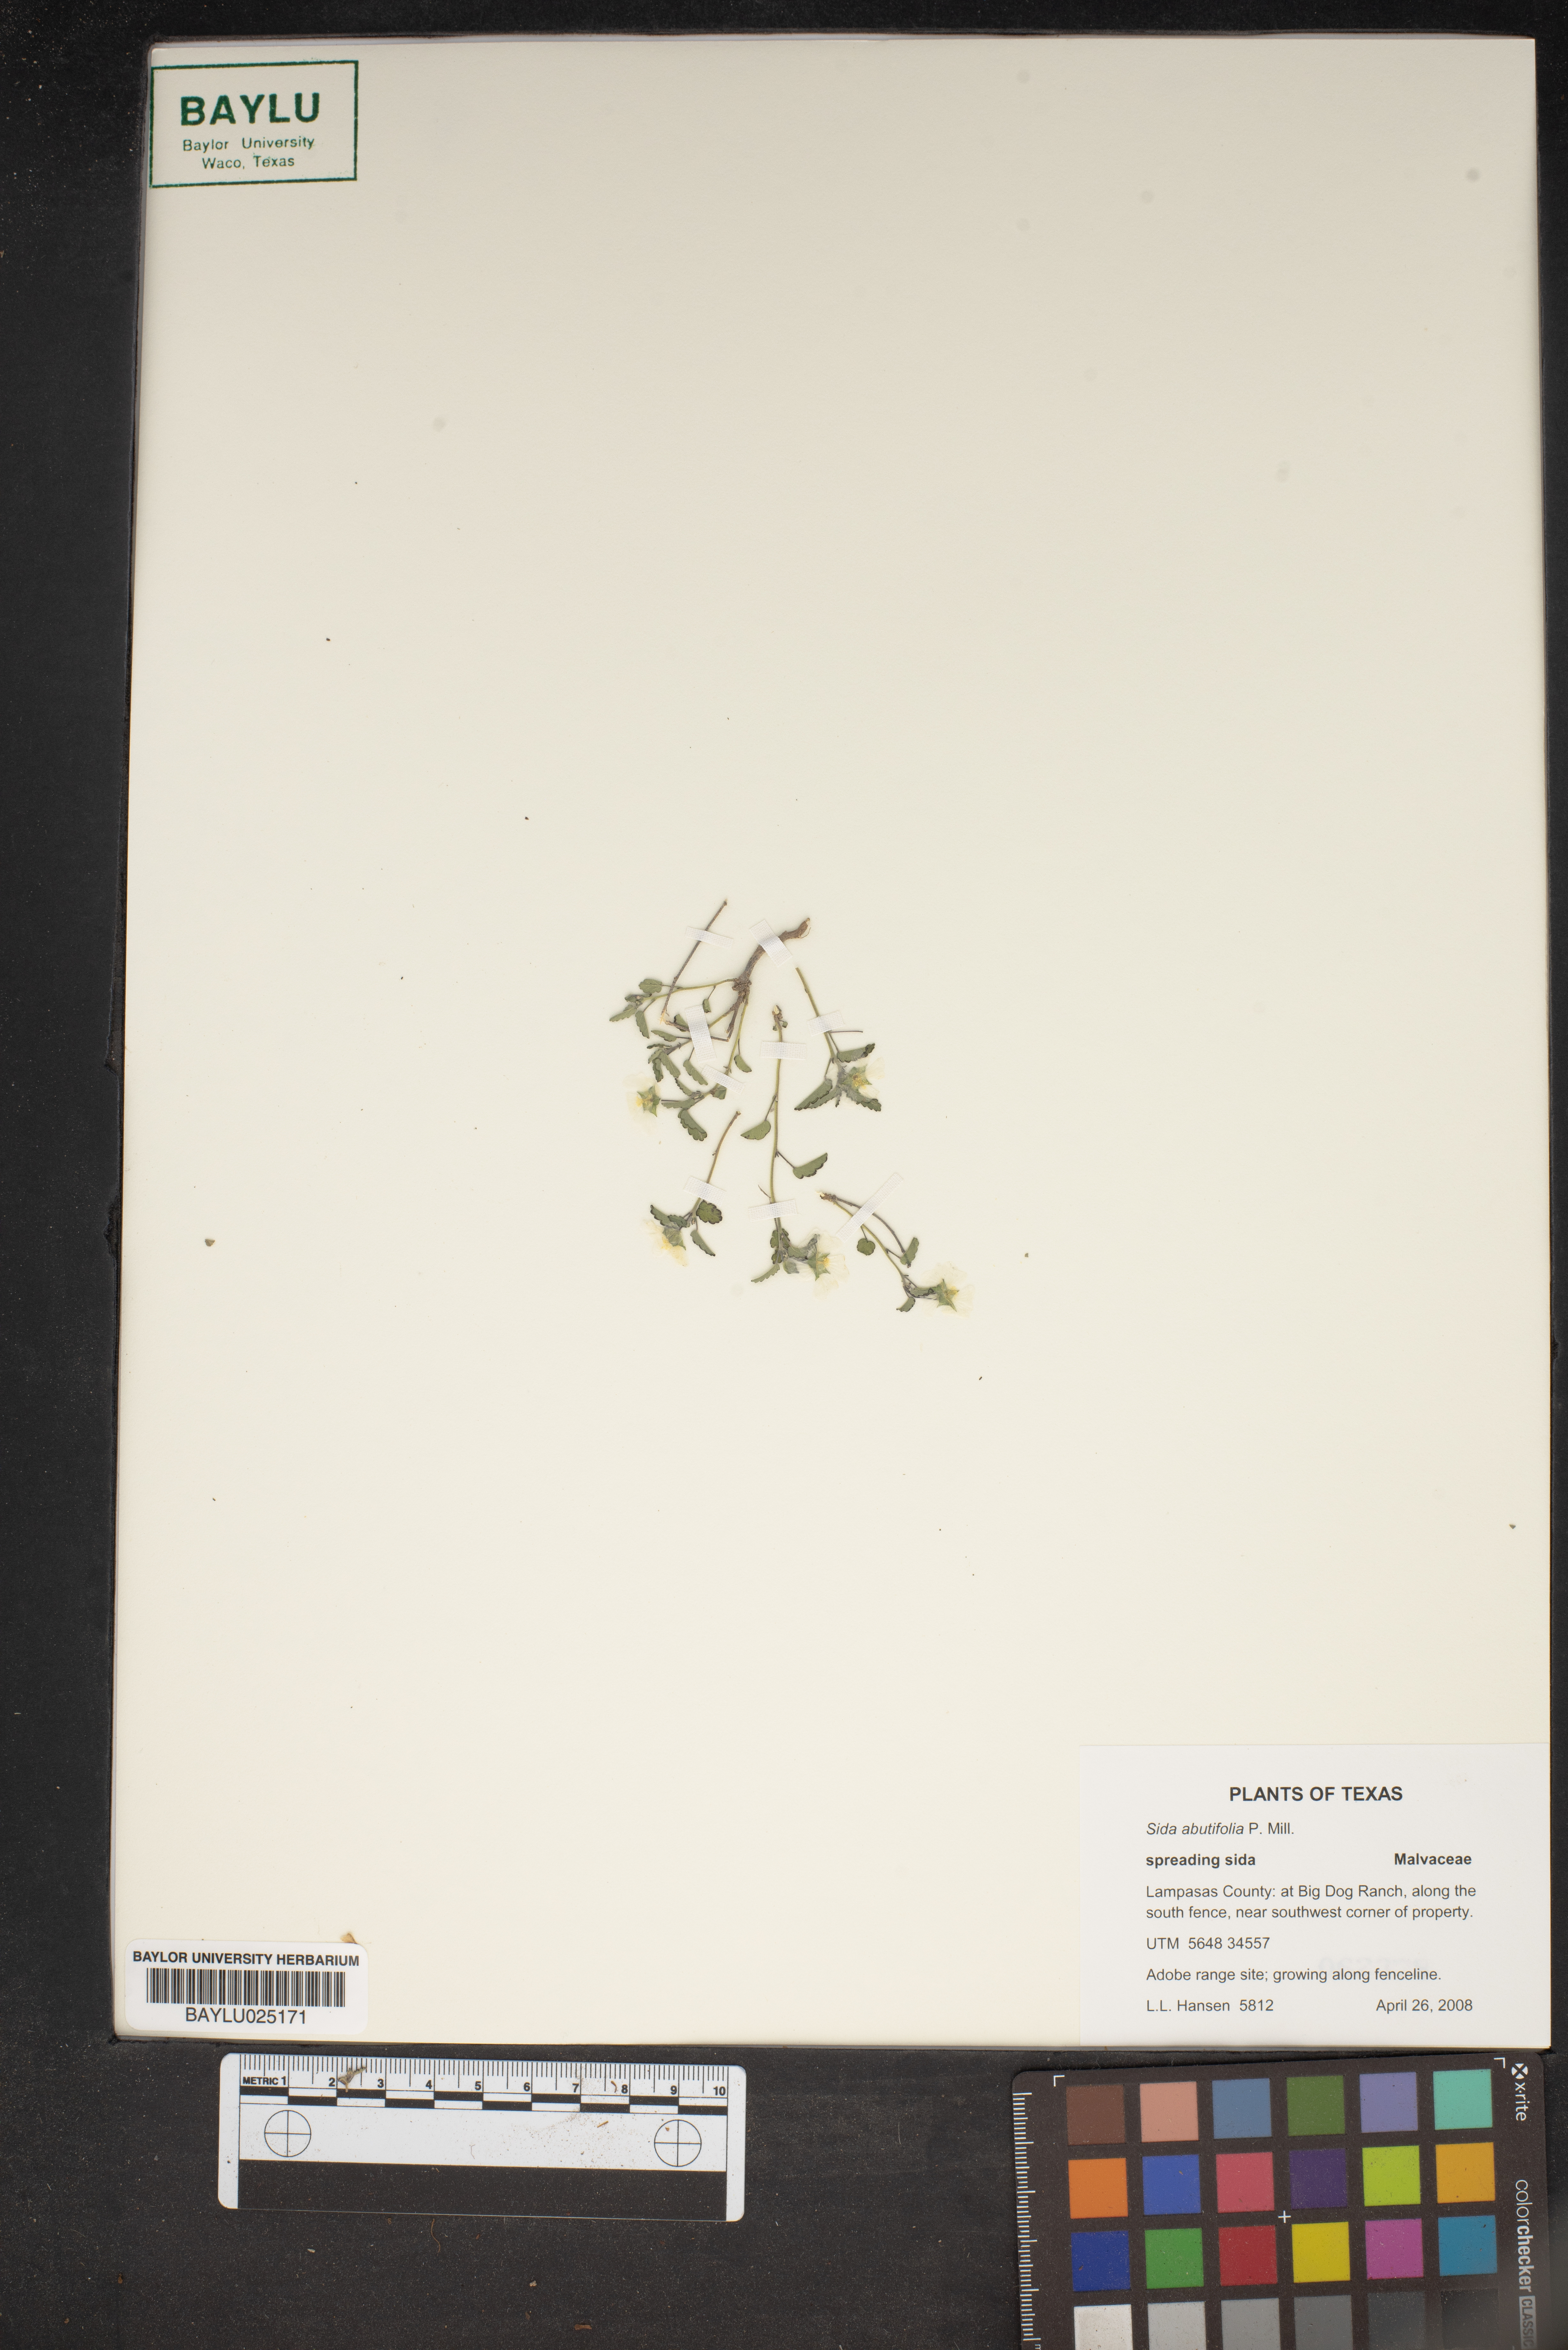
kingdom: Plantae
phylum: Tracheophyta
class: Magnoliopsida
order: Malvales
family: Malvaceae
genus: Sida
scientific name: Sida abutifolia
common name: Spreading fantails
